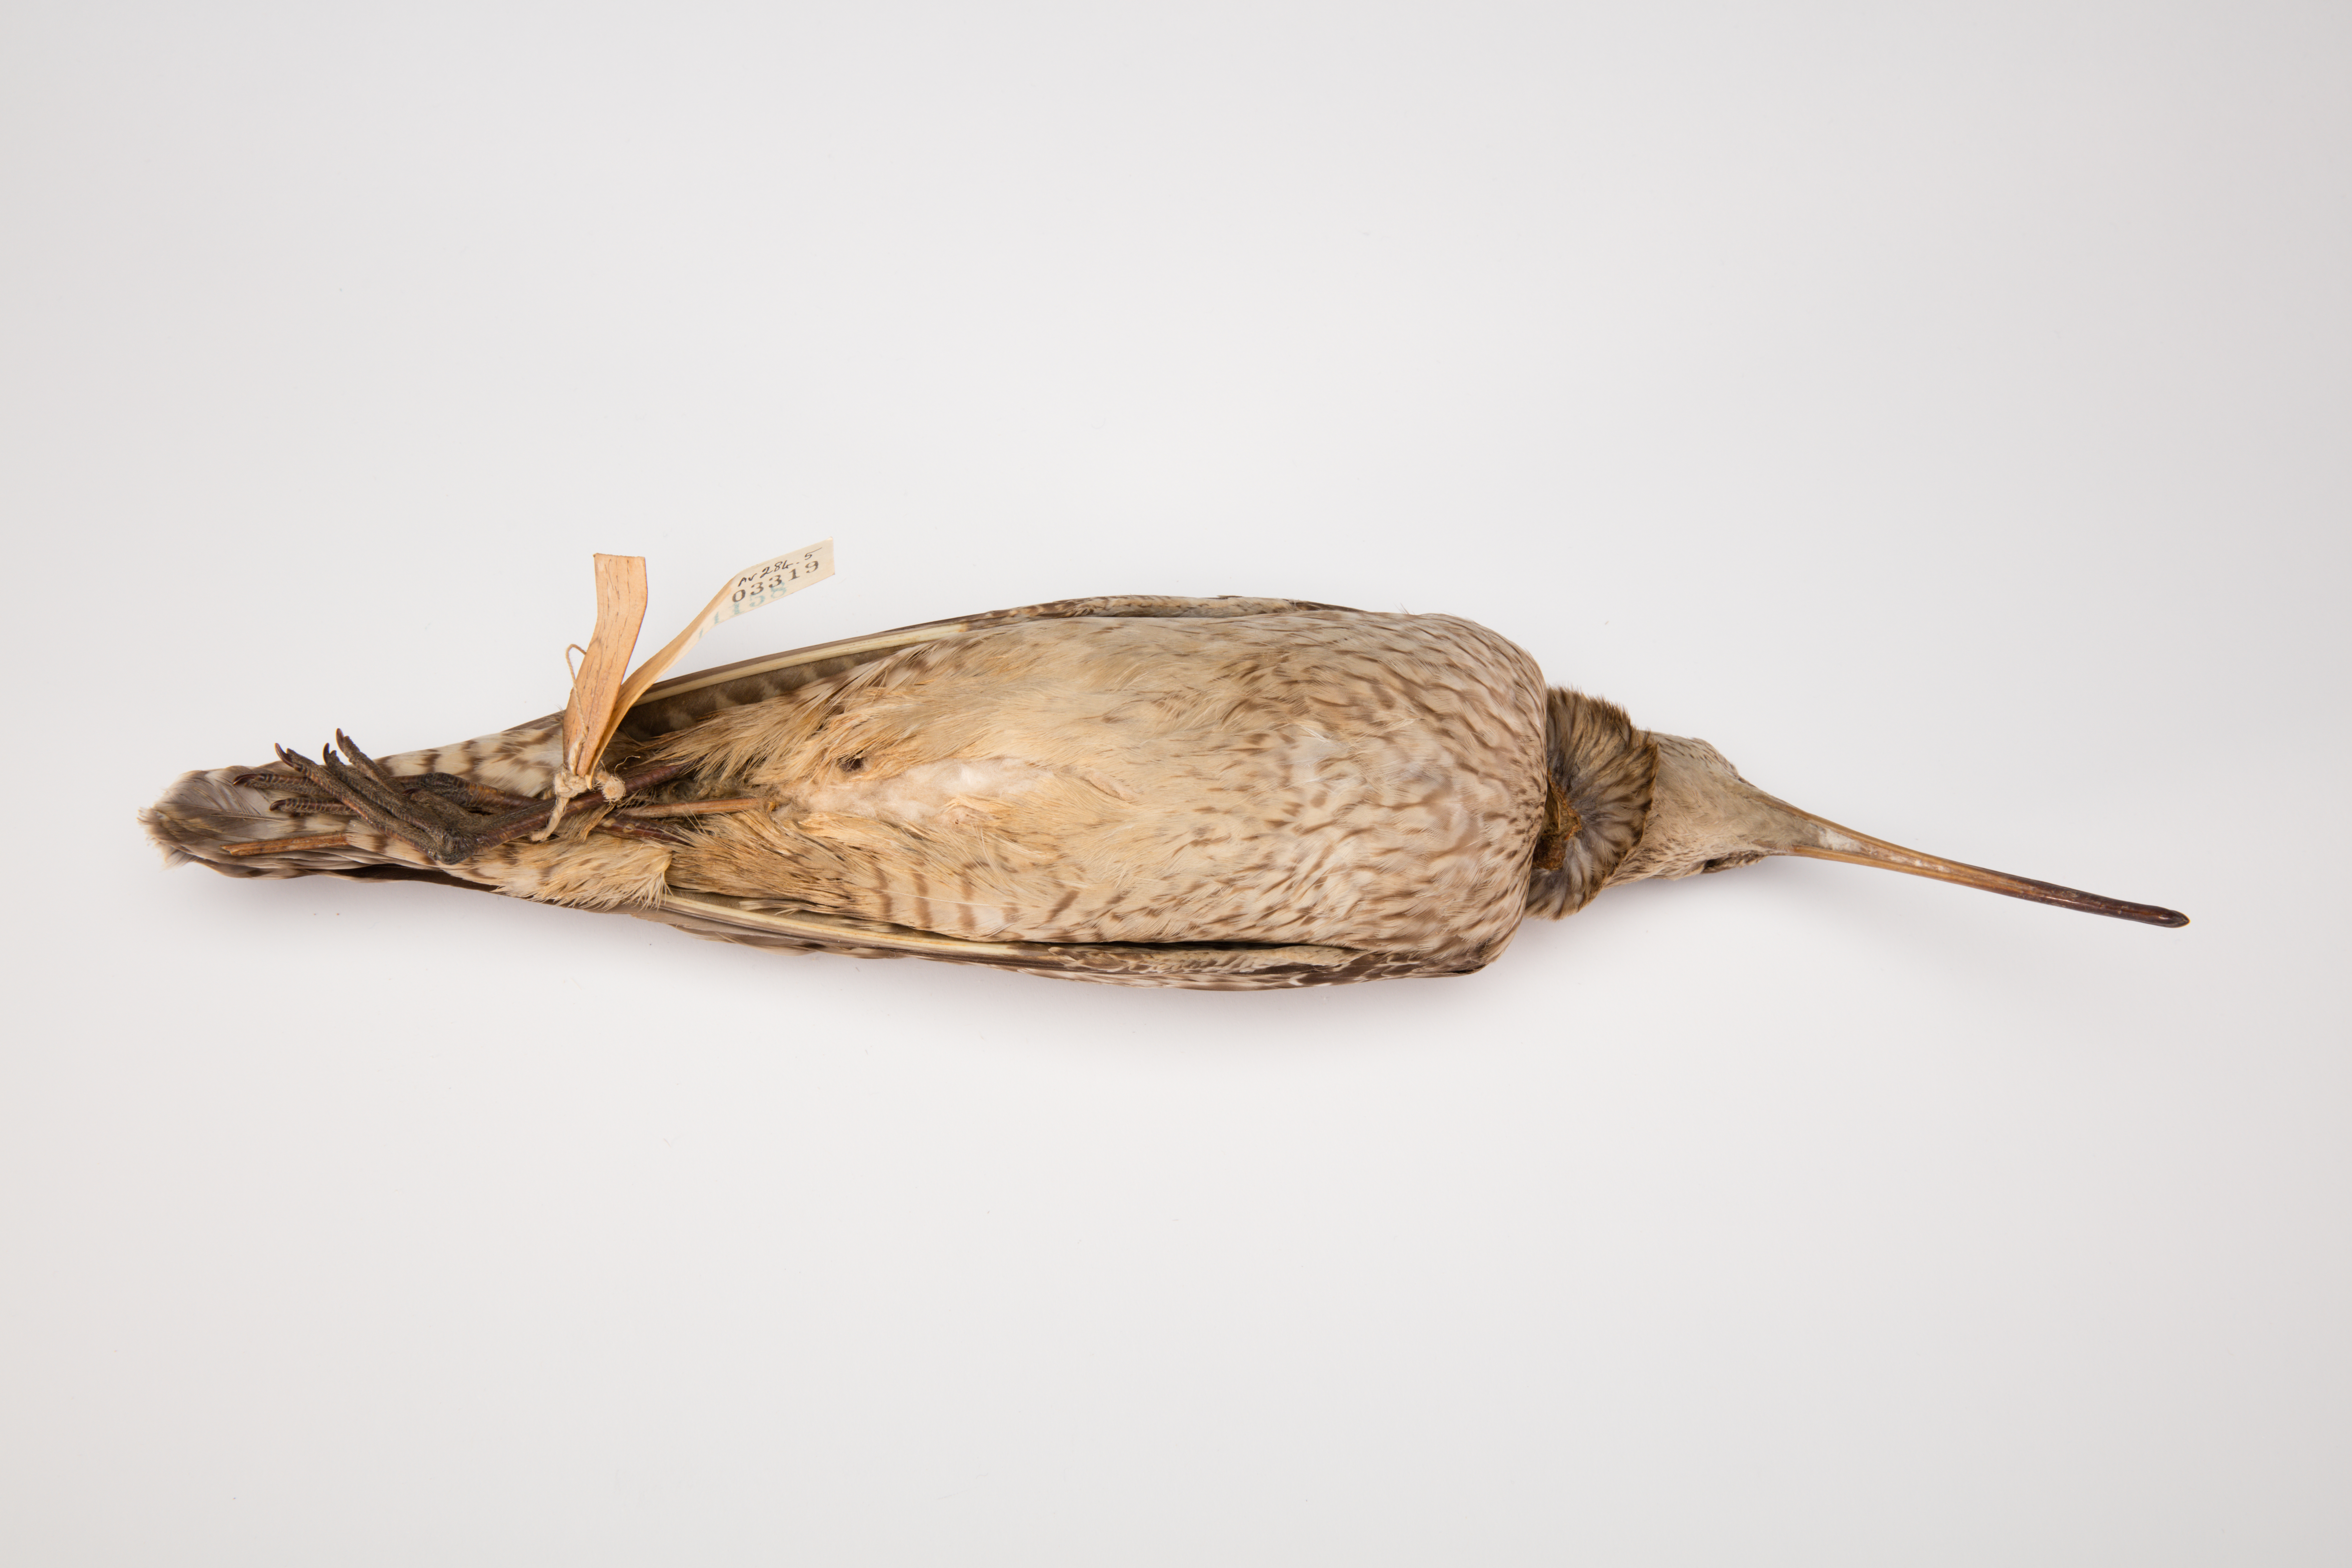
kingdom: Animalia
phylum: Chordata
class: Aves
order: Charadriiformes
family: Scolopacidae
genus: Numenius
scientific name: Numenius phaeopus
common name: Whimbrel
